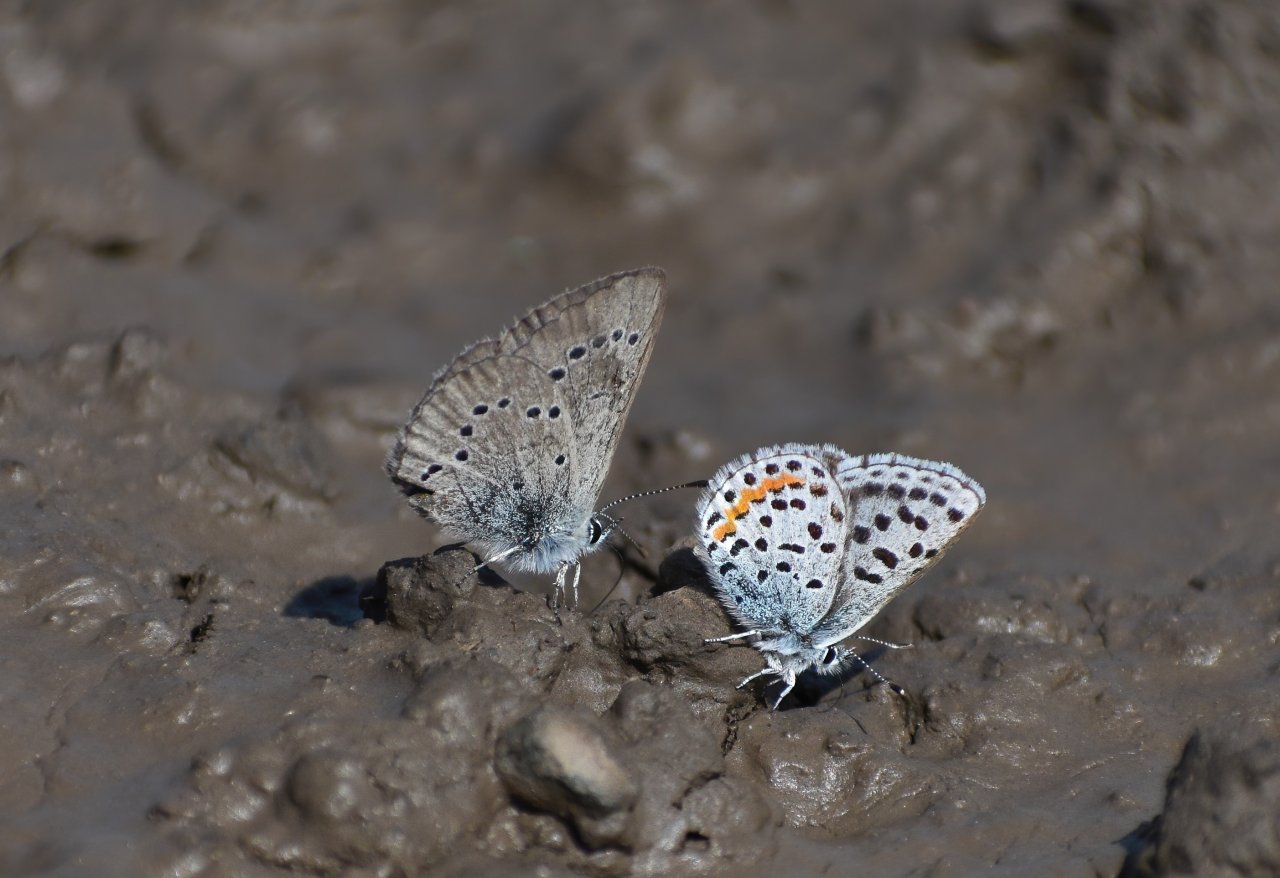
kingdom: Animalia
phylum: Arthropoda
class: Insecta
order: Lepidoptera
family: Lycaenidae
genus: Celastrina
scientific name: Celastrina lucia
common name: Northern Spring Azure
